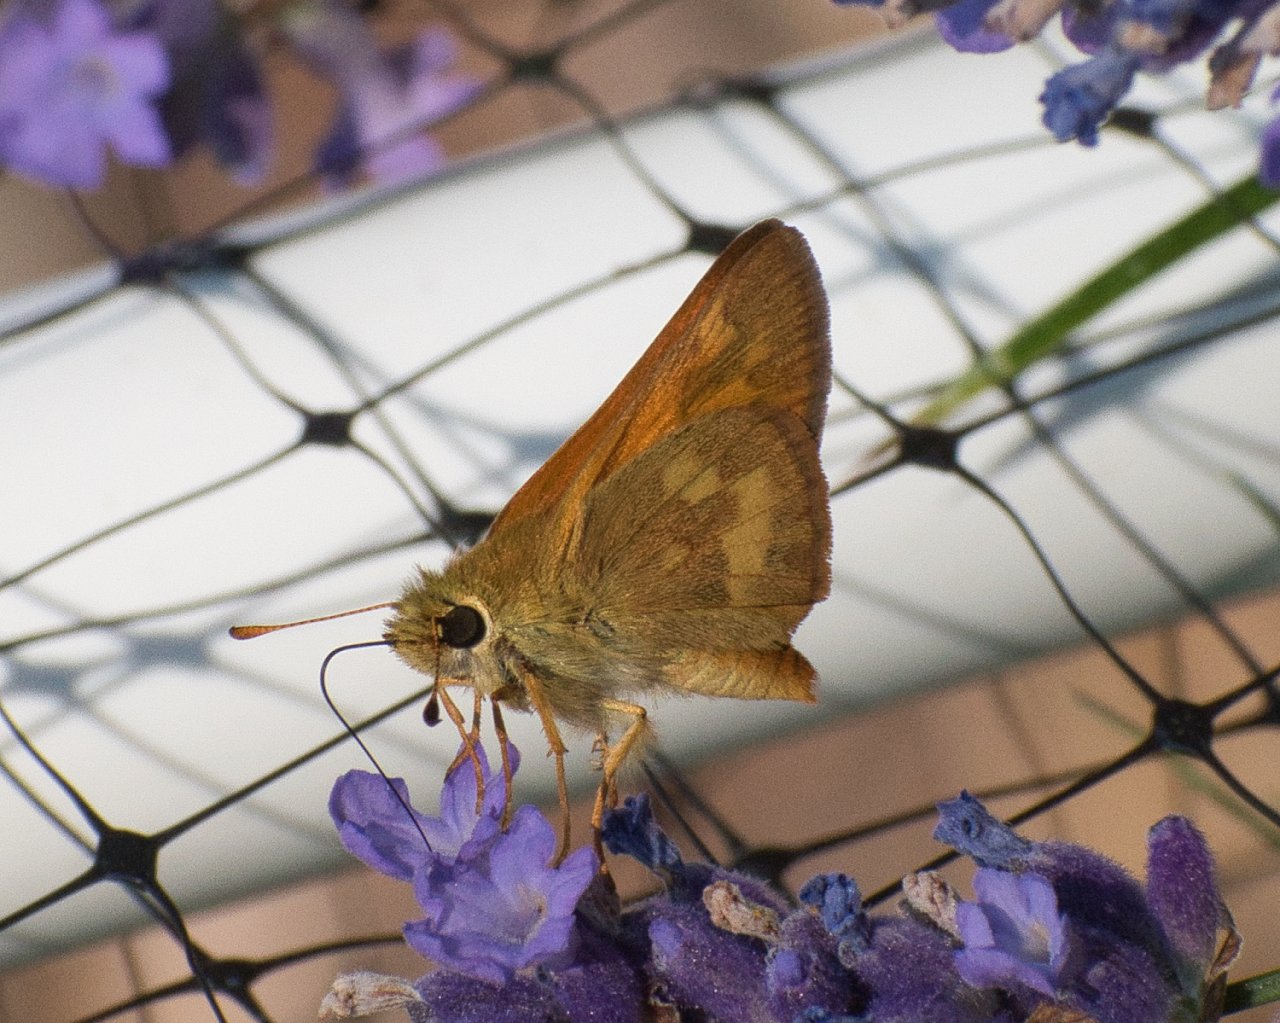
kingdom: Animalia
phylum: Arthropoda
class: Insecta
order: Lepidoptera
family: Hesperiidae
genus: Ochlodes
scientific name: Ochlodes sylvanoides
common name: Woodland Skipper
